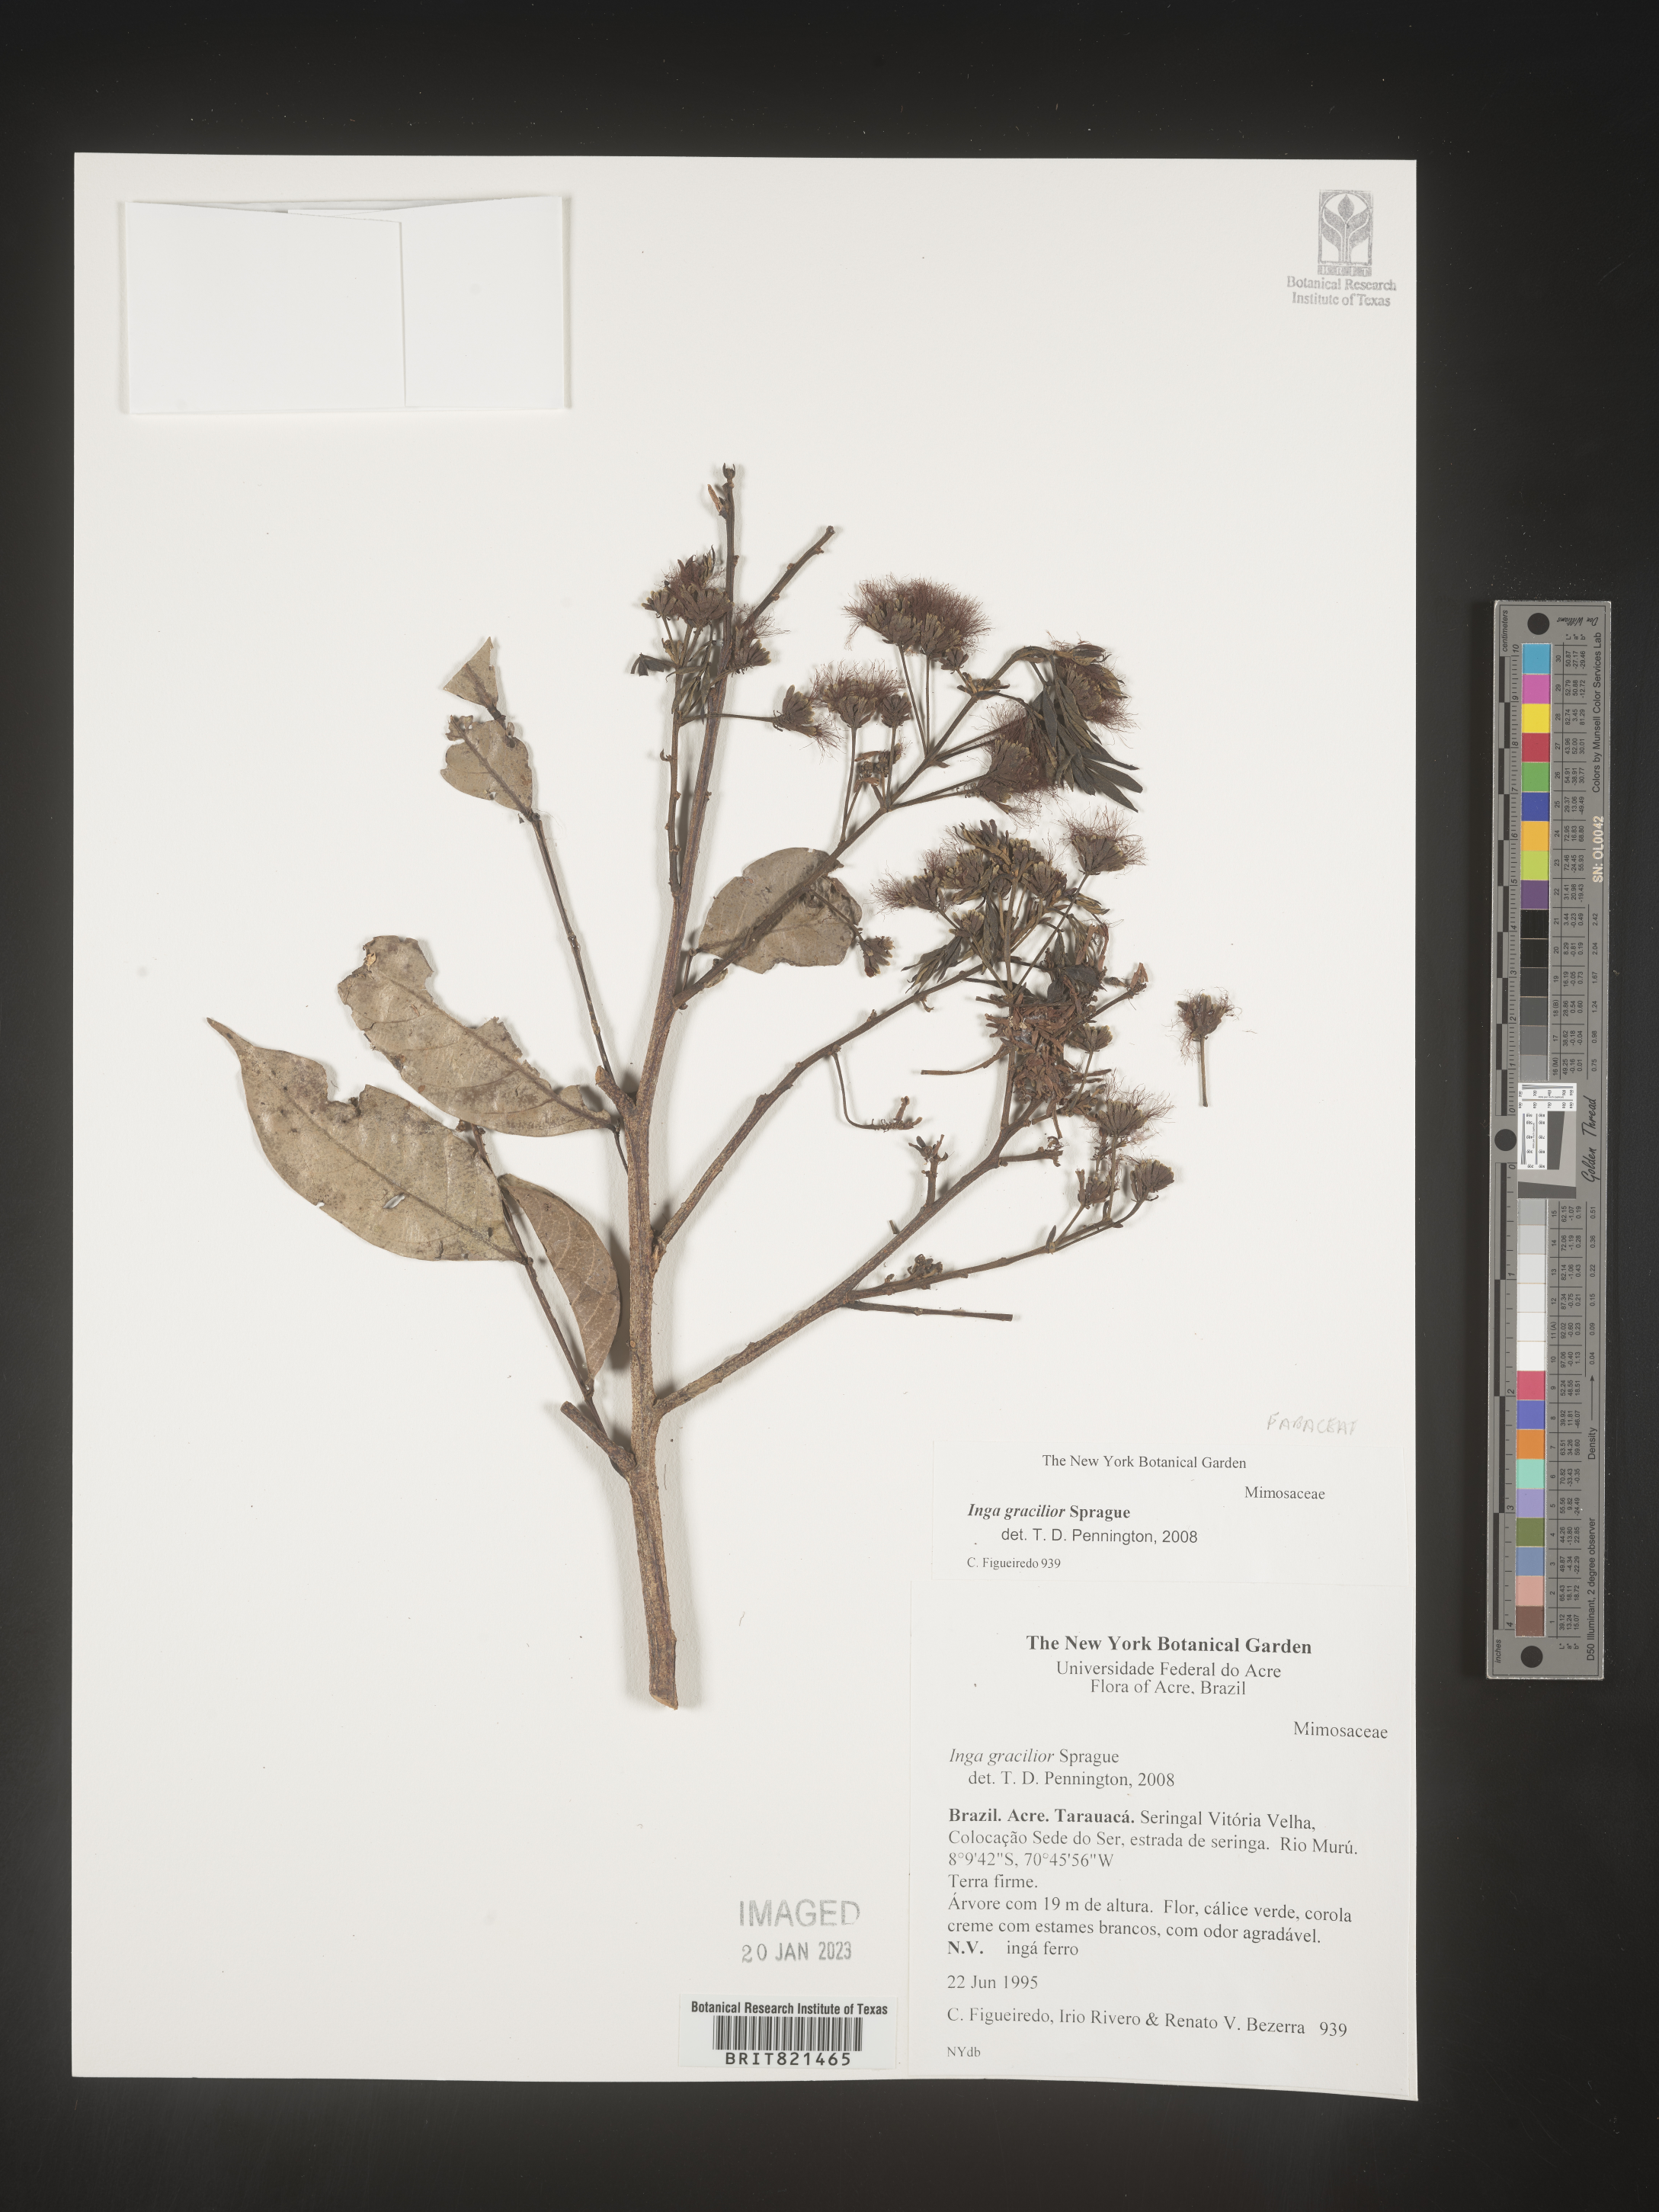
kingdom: Plantae
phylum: Tracheophyta
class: Magnoliopsida
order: Fabales
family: Fabaceae
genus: Inga
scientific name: Inga
